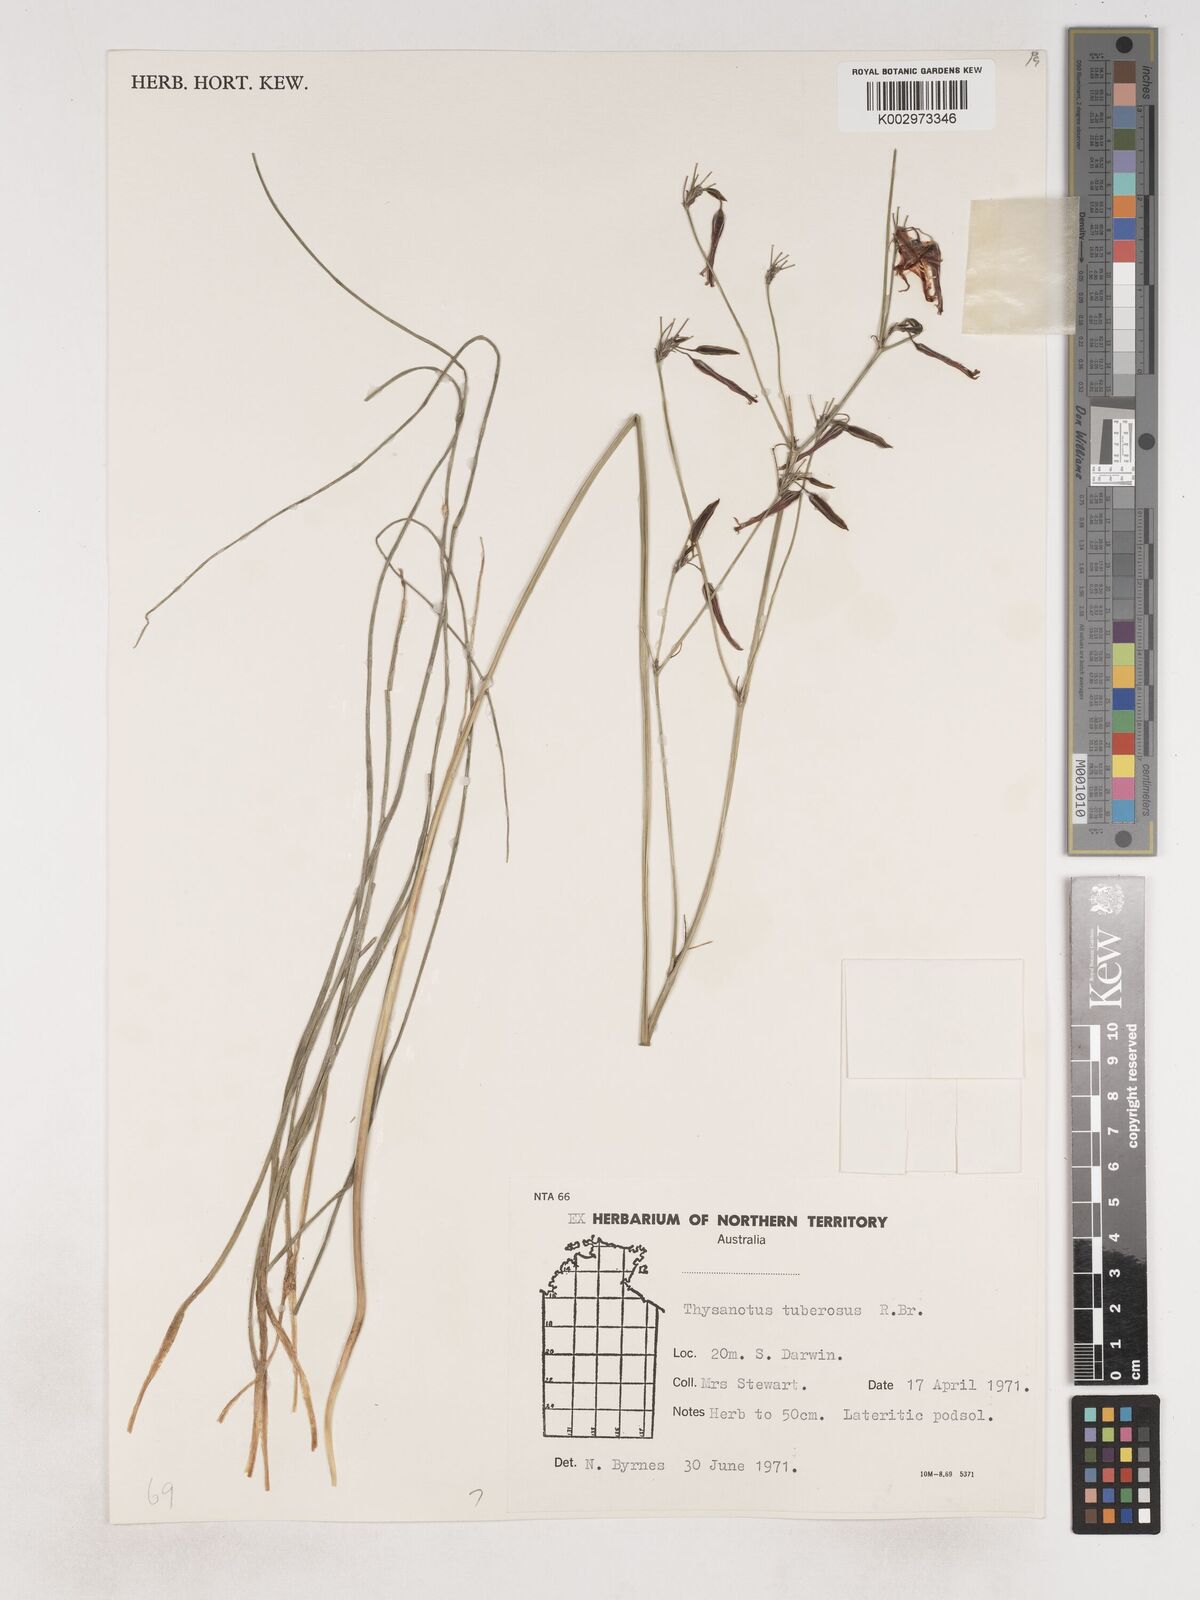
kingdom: Plantae
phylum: Tracheophyta
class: Liliopsida
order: Asparagales
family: Asparagaceae
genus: Thysanotus
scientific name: Thysanotus tuberosus
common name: Common fringed-lily
